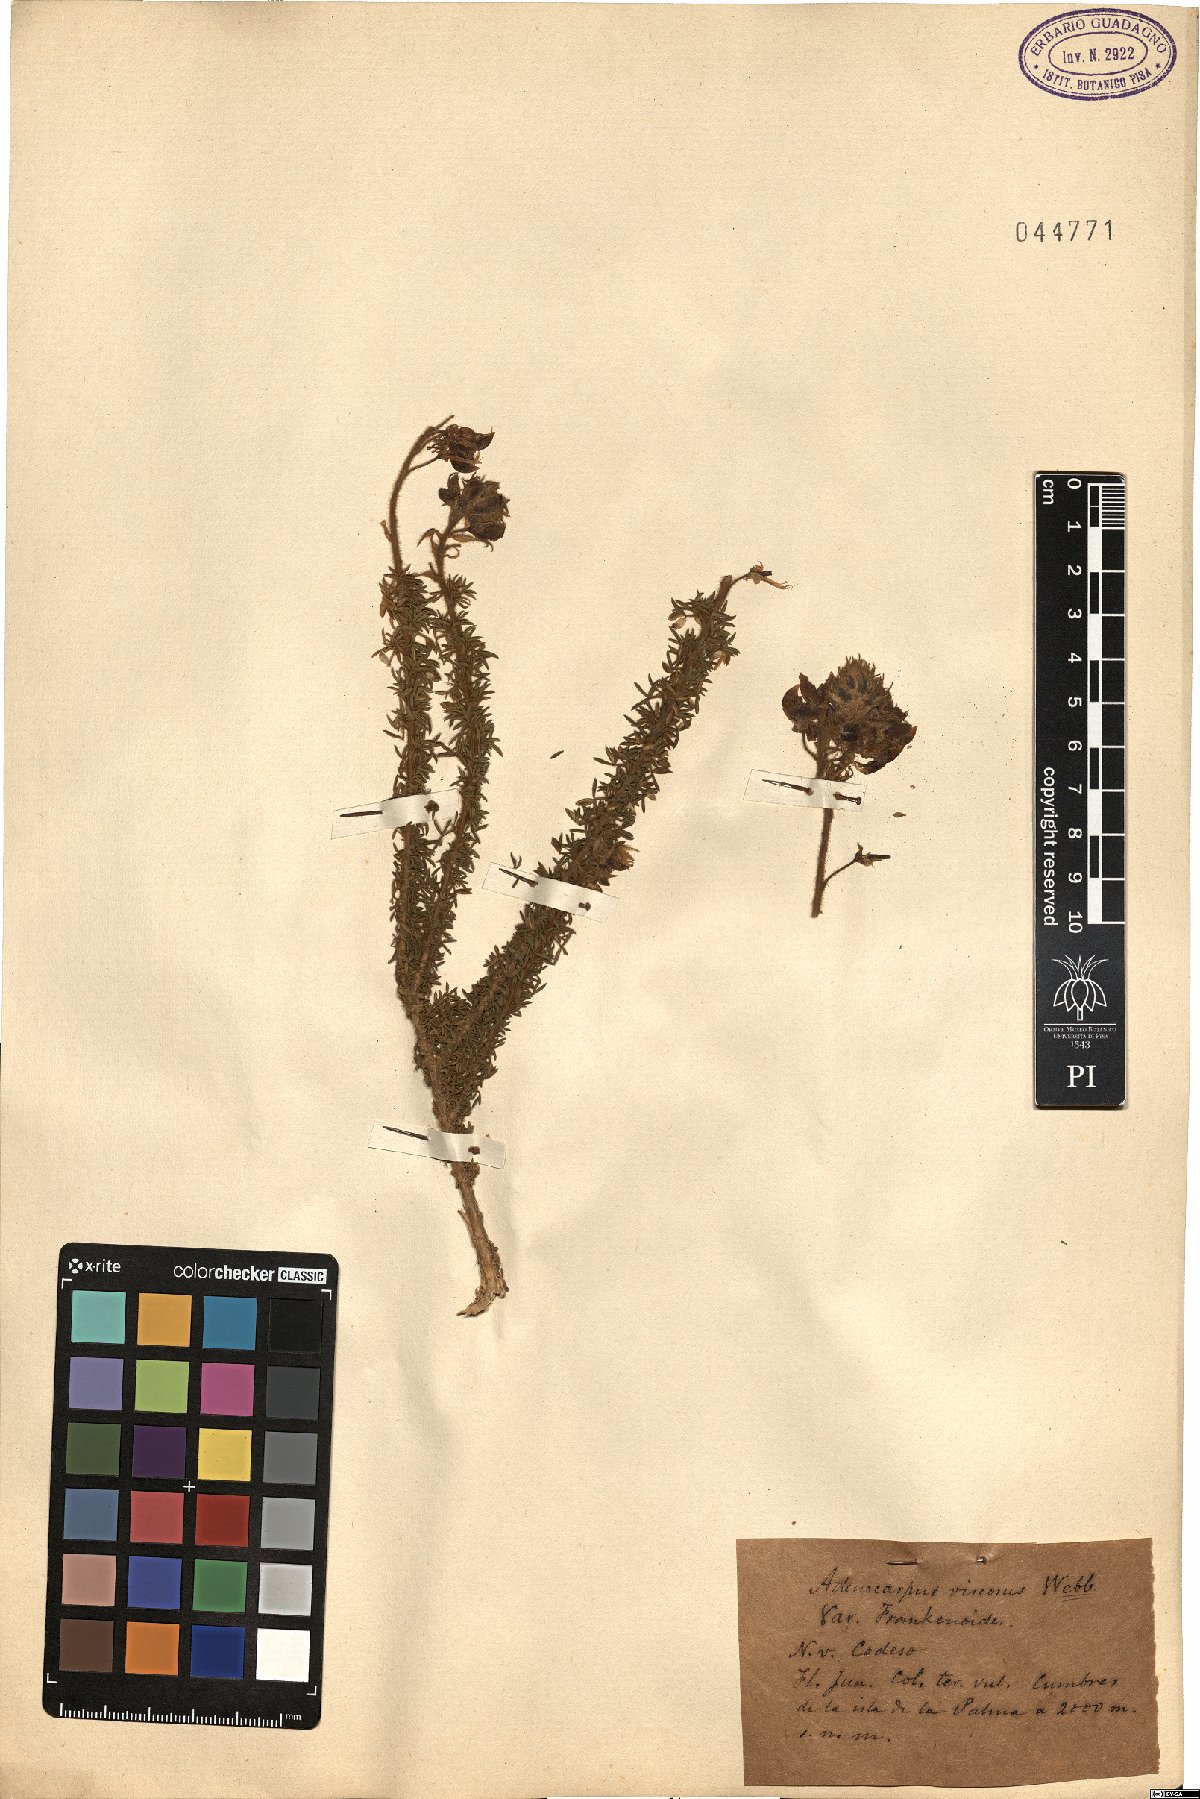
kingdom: Plantae
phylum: Tracheophyta
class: Magnoliopsida
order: Fabales
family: Fabaceae
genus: Adenocarpus
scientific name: Adenocarpus viscosus
